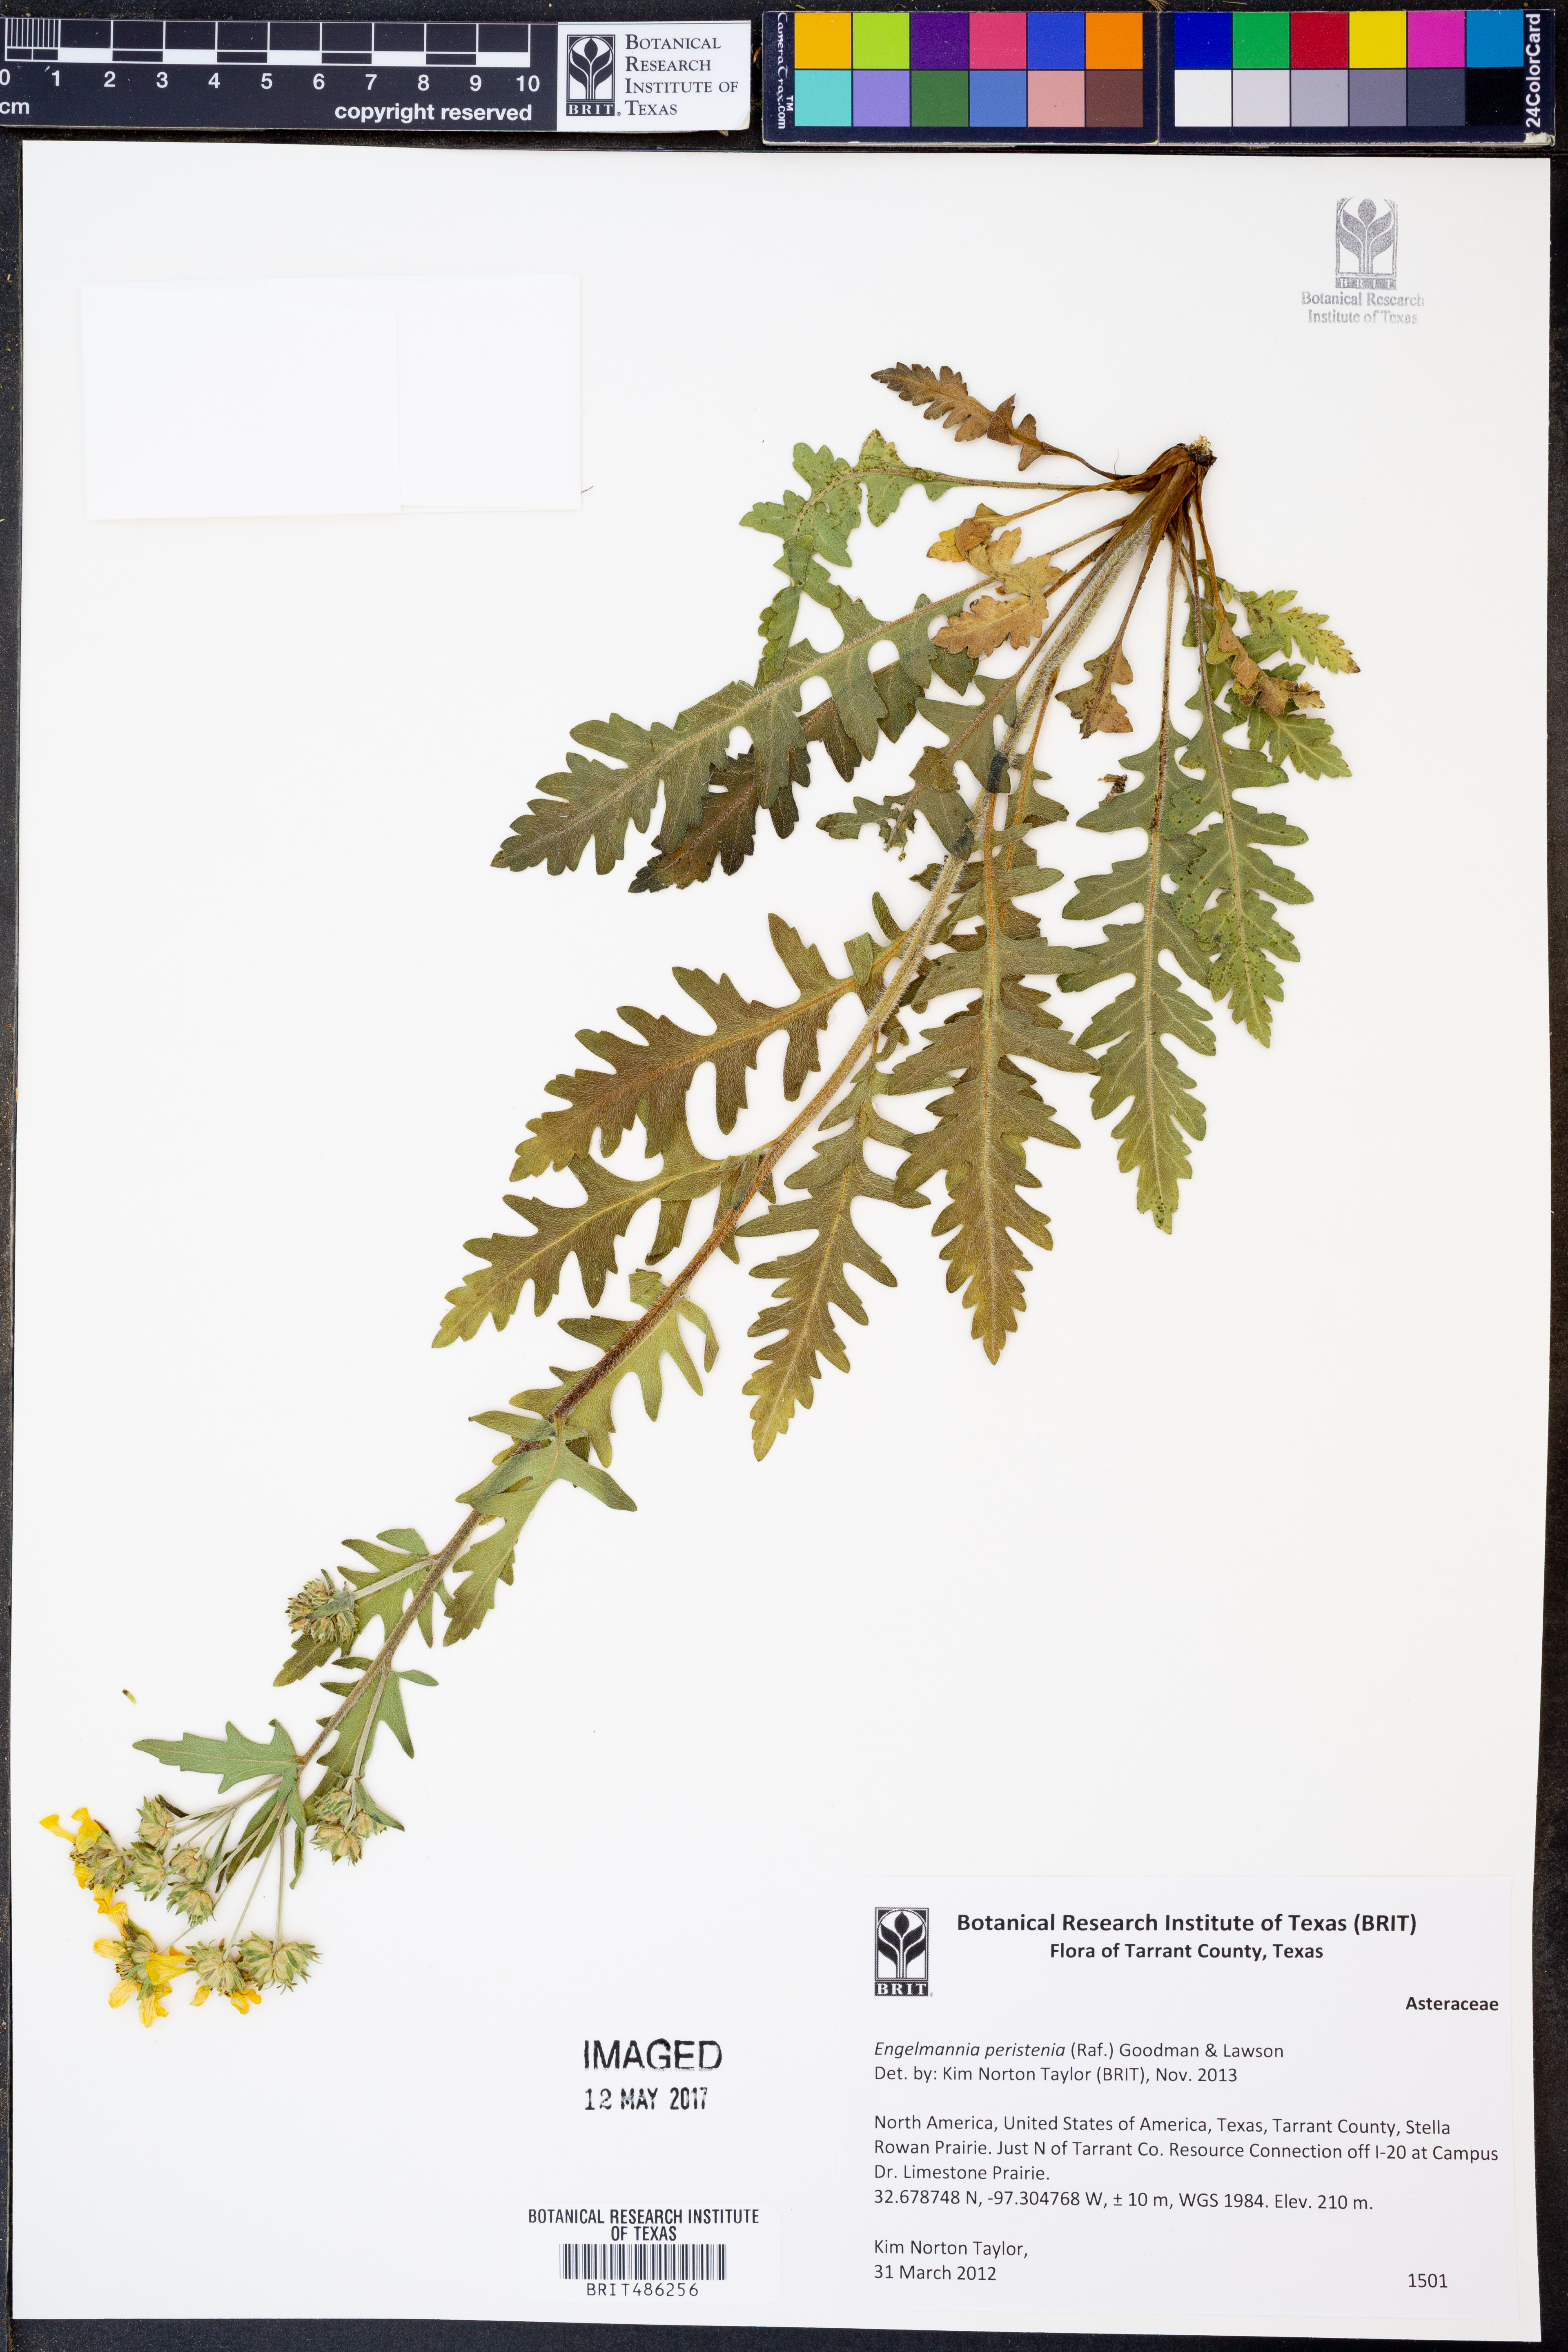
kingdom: Plantae
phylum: Tracheophyta
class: Magnoliopsida
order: Asterales
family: Asteraceae
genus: Engelmannia
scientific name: Engelmannia peristenia
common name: Engelmann's daisy
